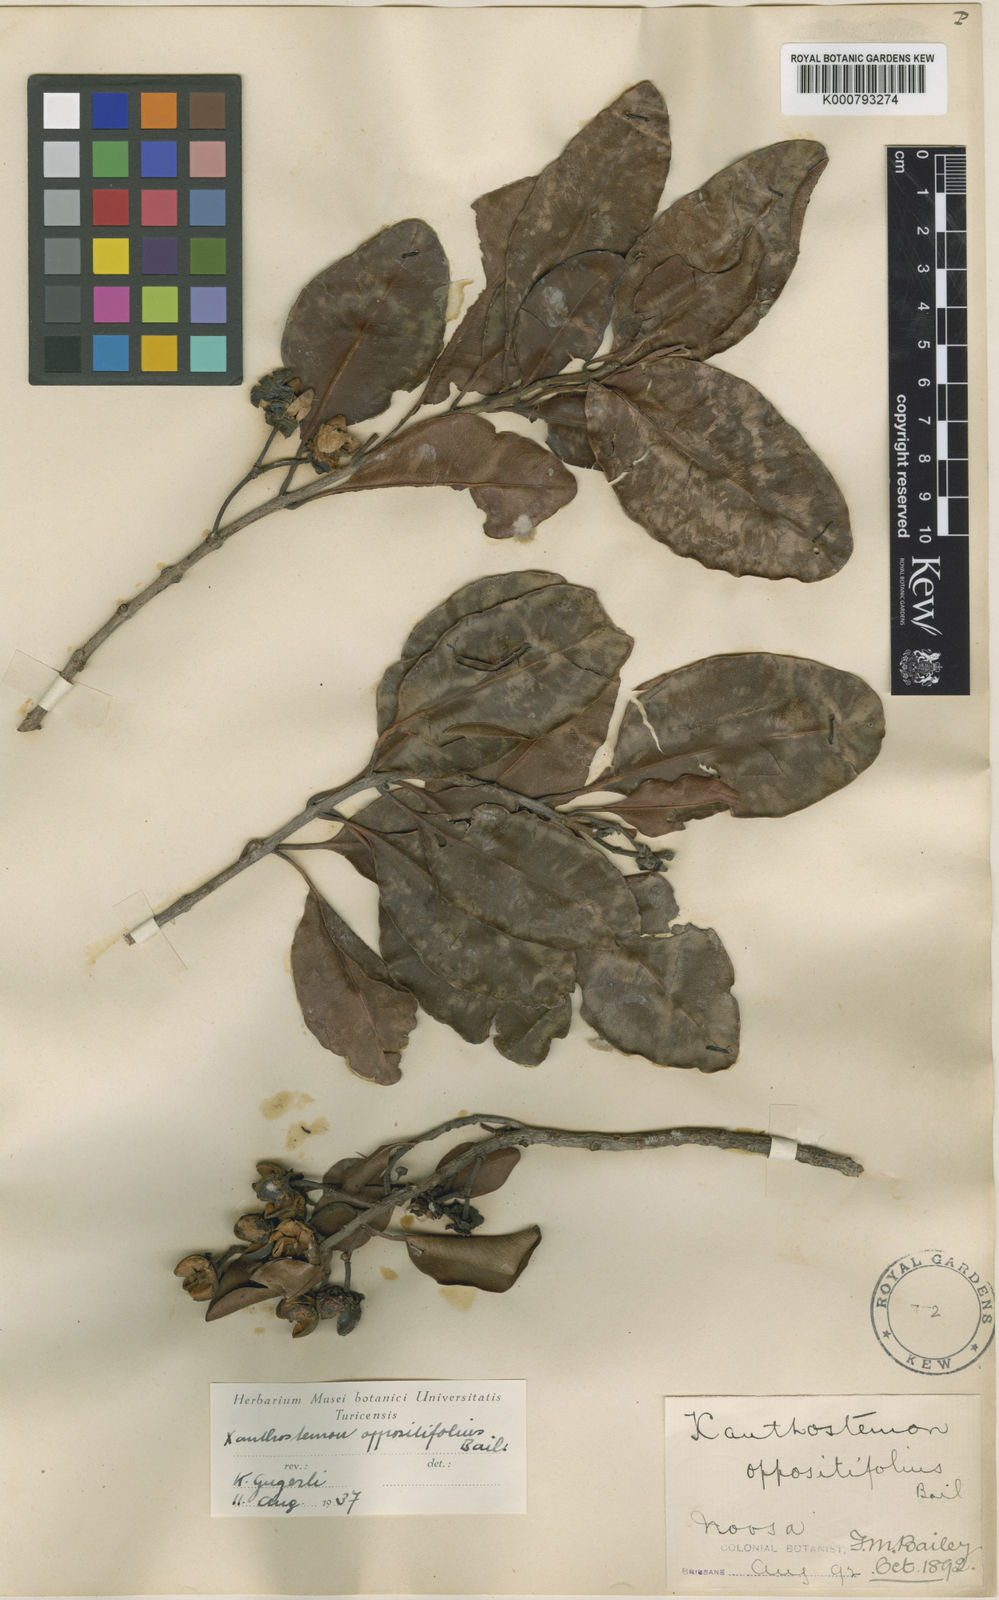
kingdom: Plantae
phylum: Tracheophyta
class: Magnoliopsida
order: Myrtales
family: Myrtaceae
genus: Xanthostemon
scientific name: Xanthostemon oppositifolius
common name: Southern penda
